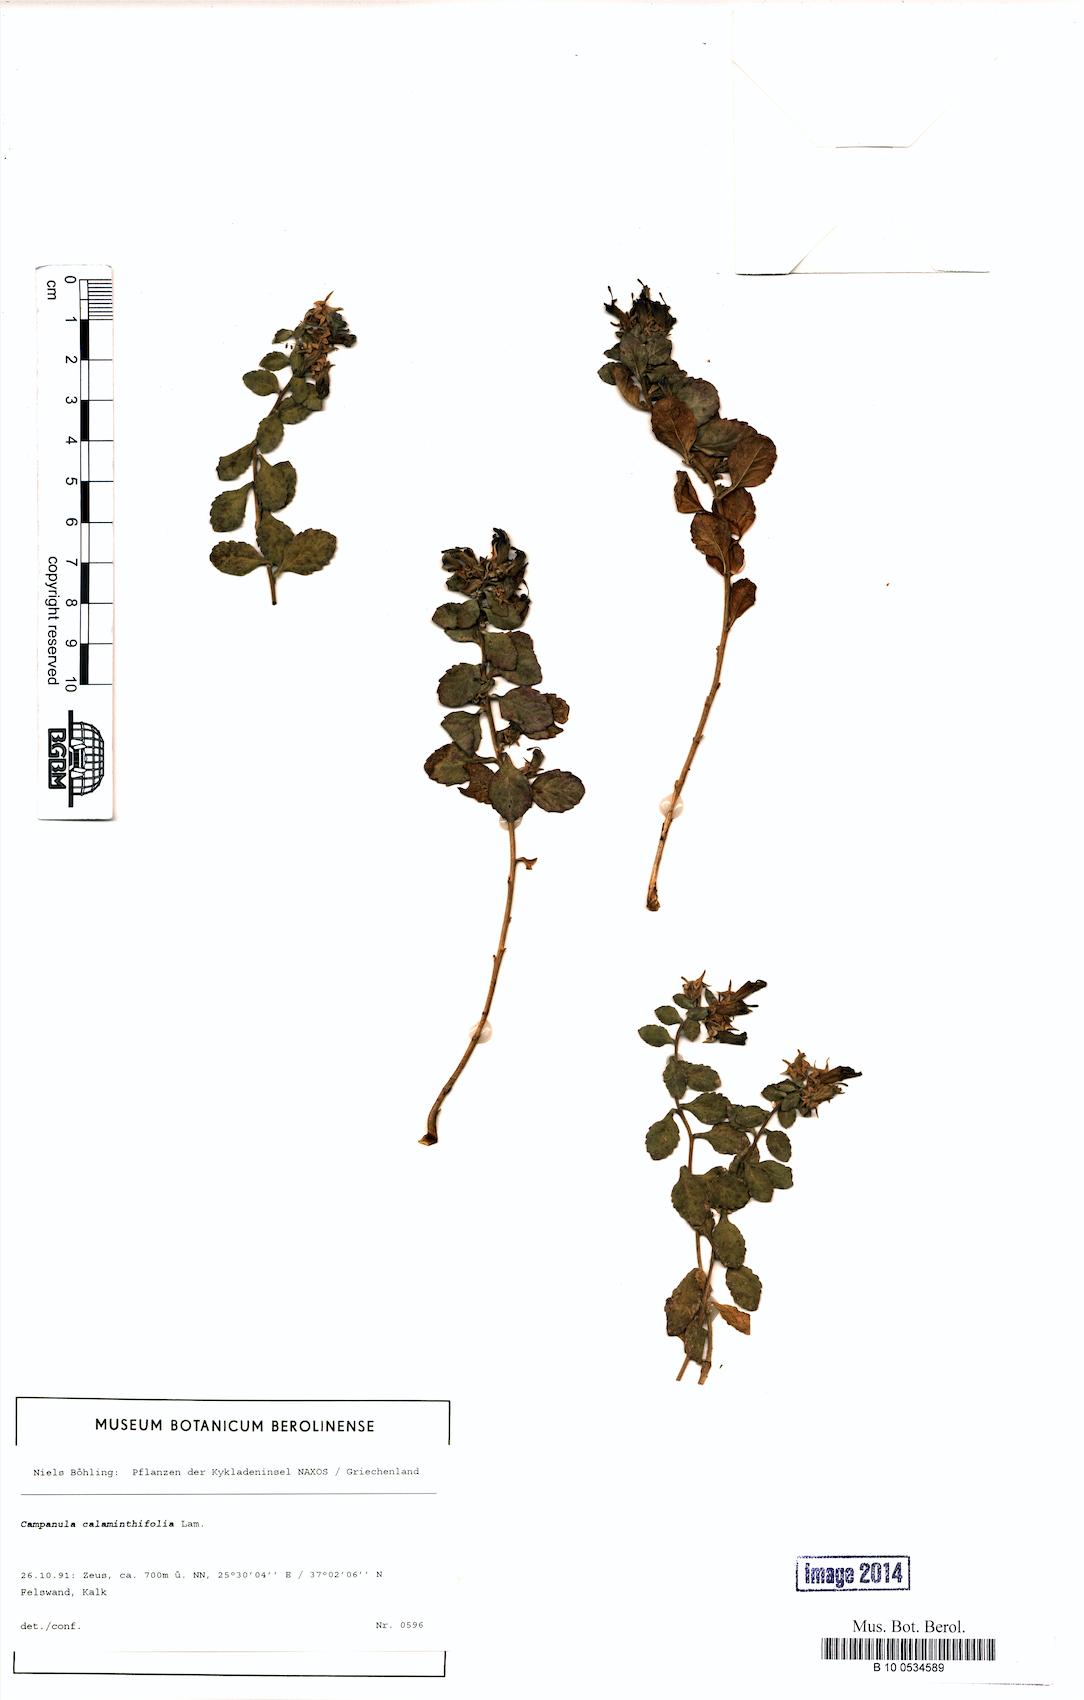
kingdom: Plantae
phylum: Tracheophyta
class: Magnoliopsida
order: Asterales
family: Campanulaceae
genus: Campanula
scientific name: Campanula calaminthifolia
